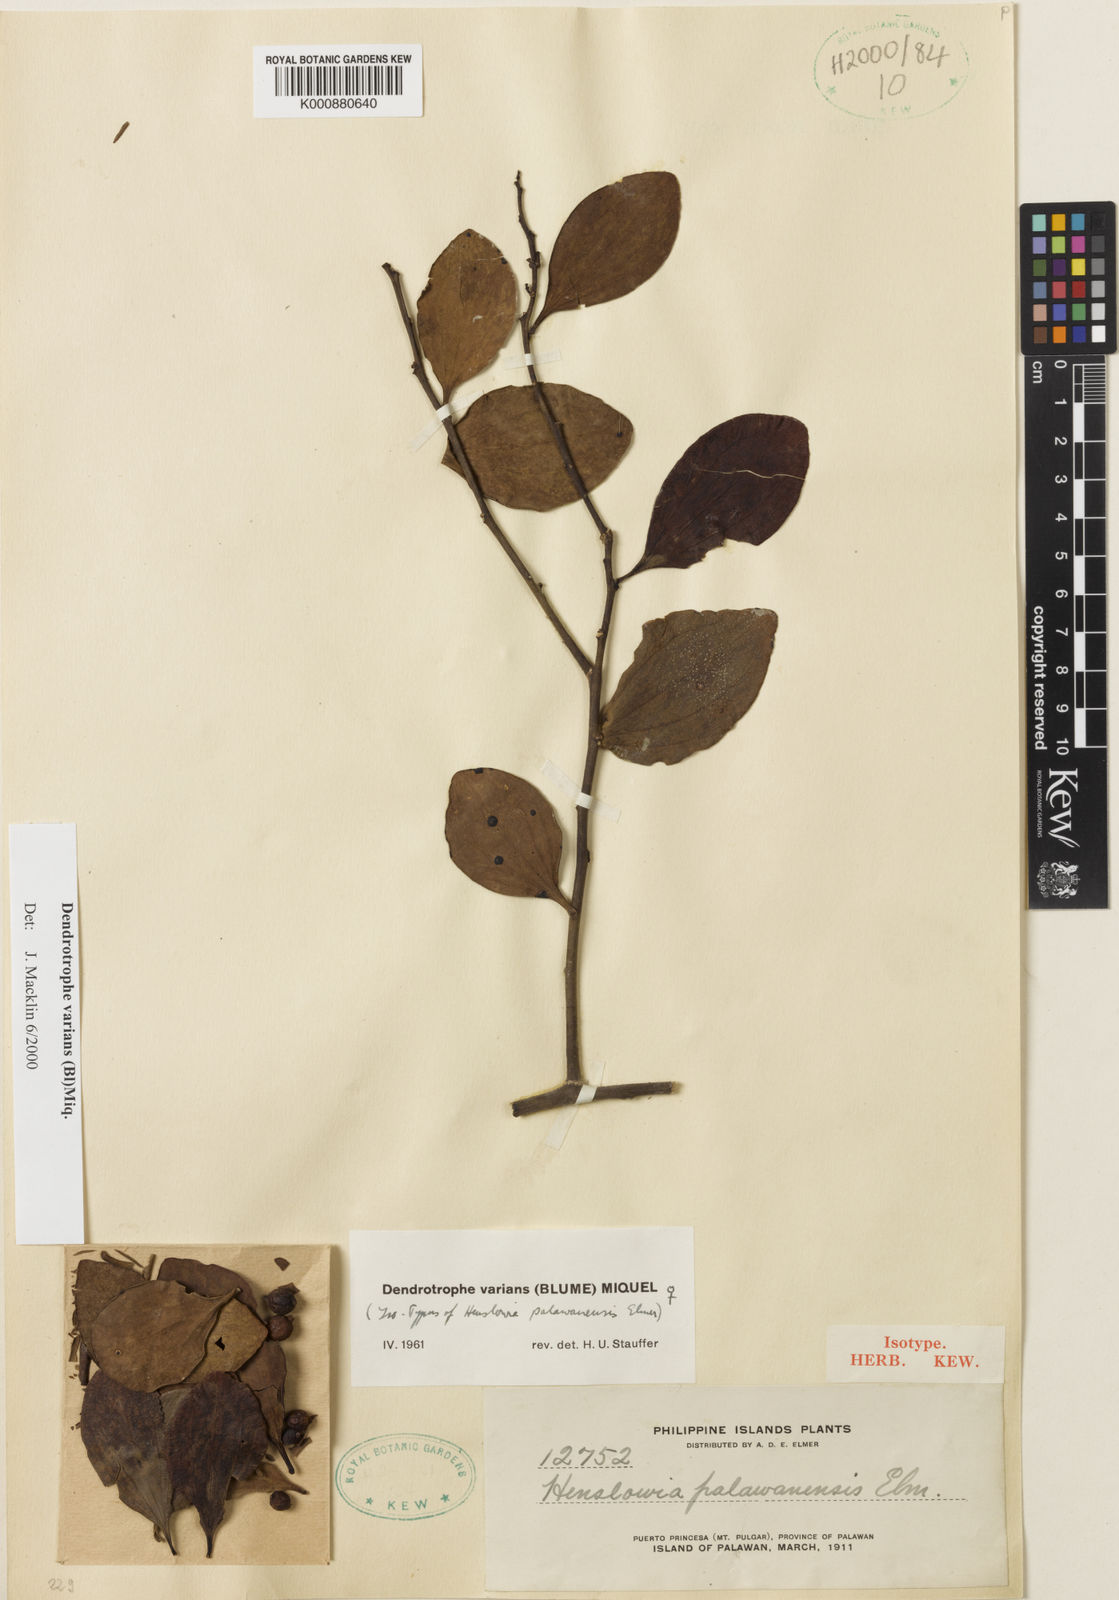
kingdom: Plantae
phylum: Tracheophyta
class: Magnoliopsida
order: Santalales
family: Amphorogynaceae
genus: Dendrotrophe
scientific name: Dendrotrophe varians
